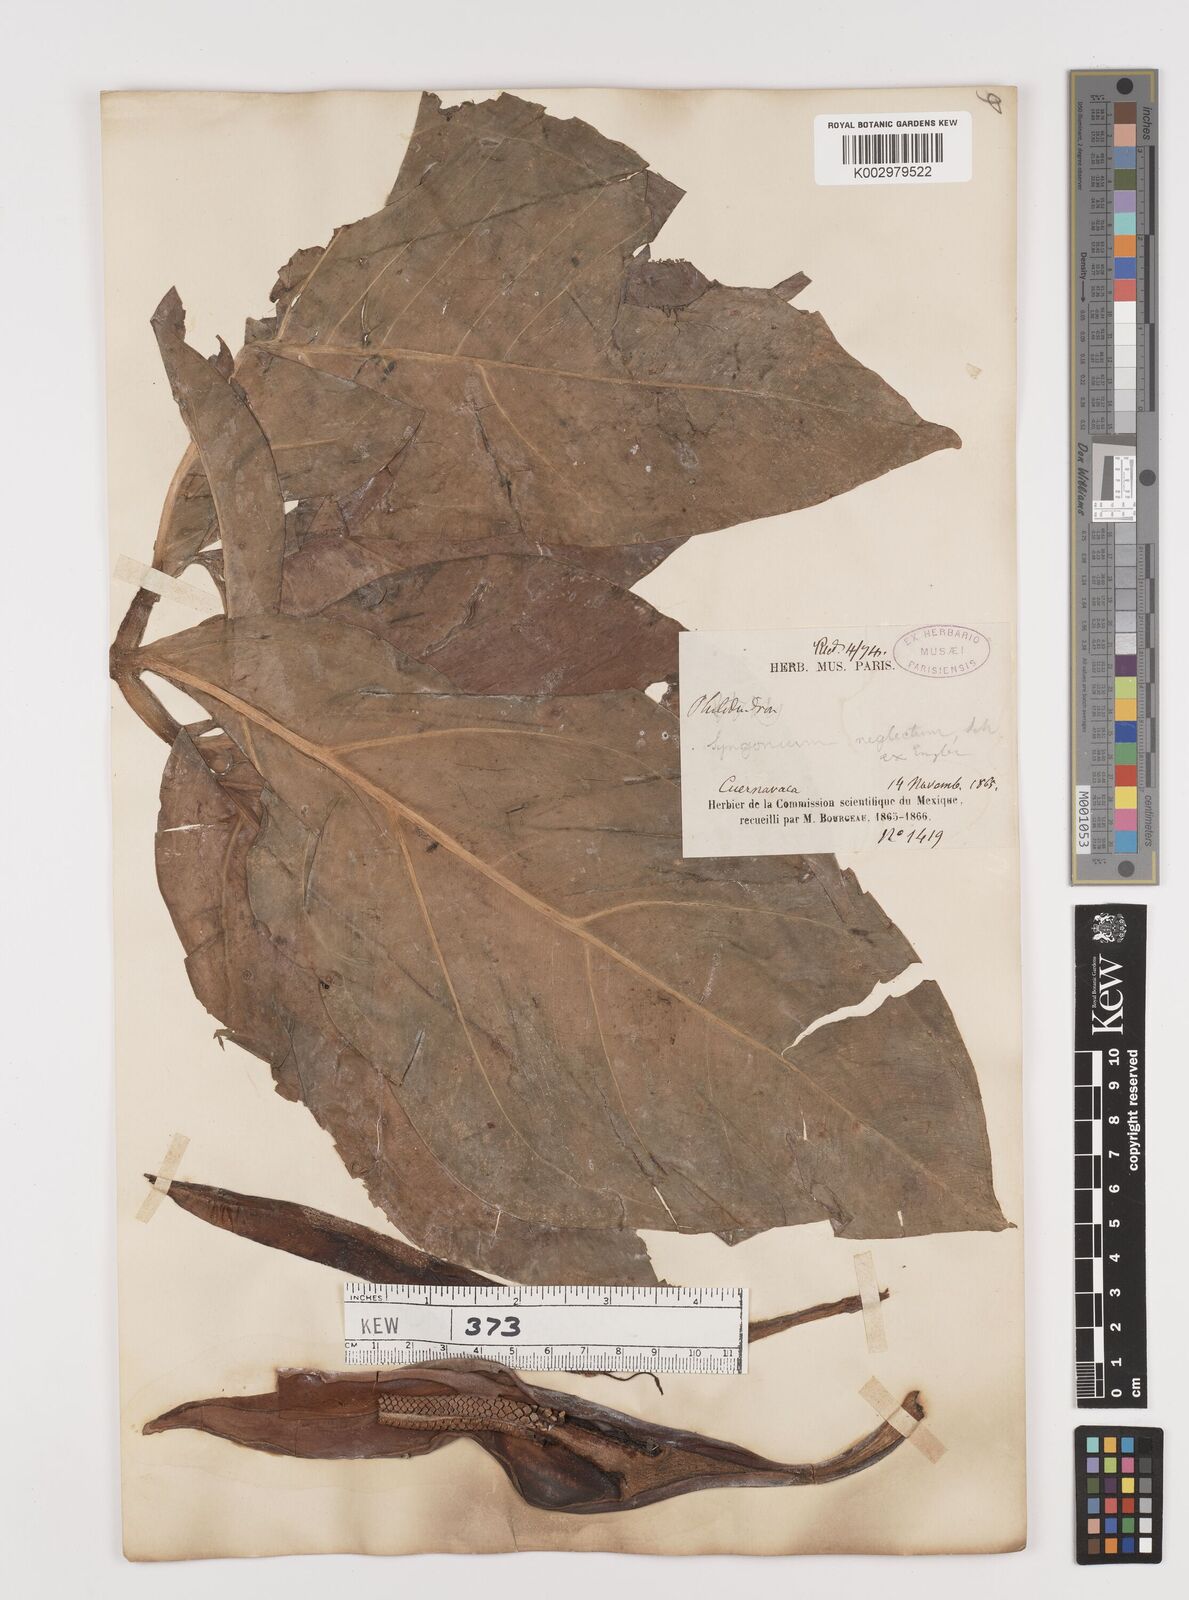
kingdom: Plantae
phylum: Tracheophyta
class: Liliopsida
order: Alismatales
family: Araceae
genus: Syngonium
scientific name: Syngonium neglectum
